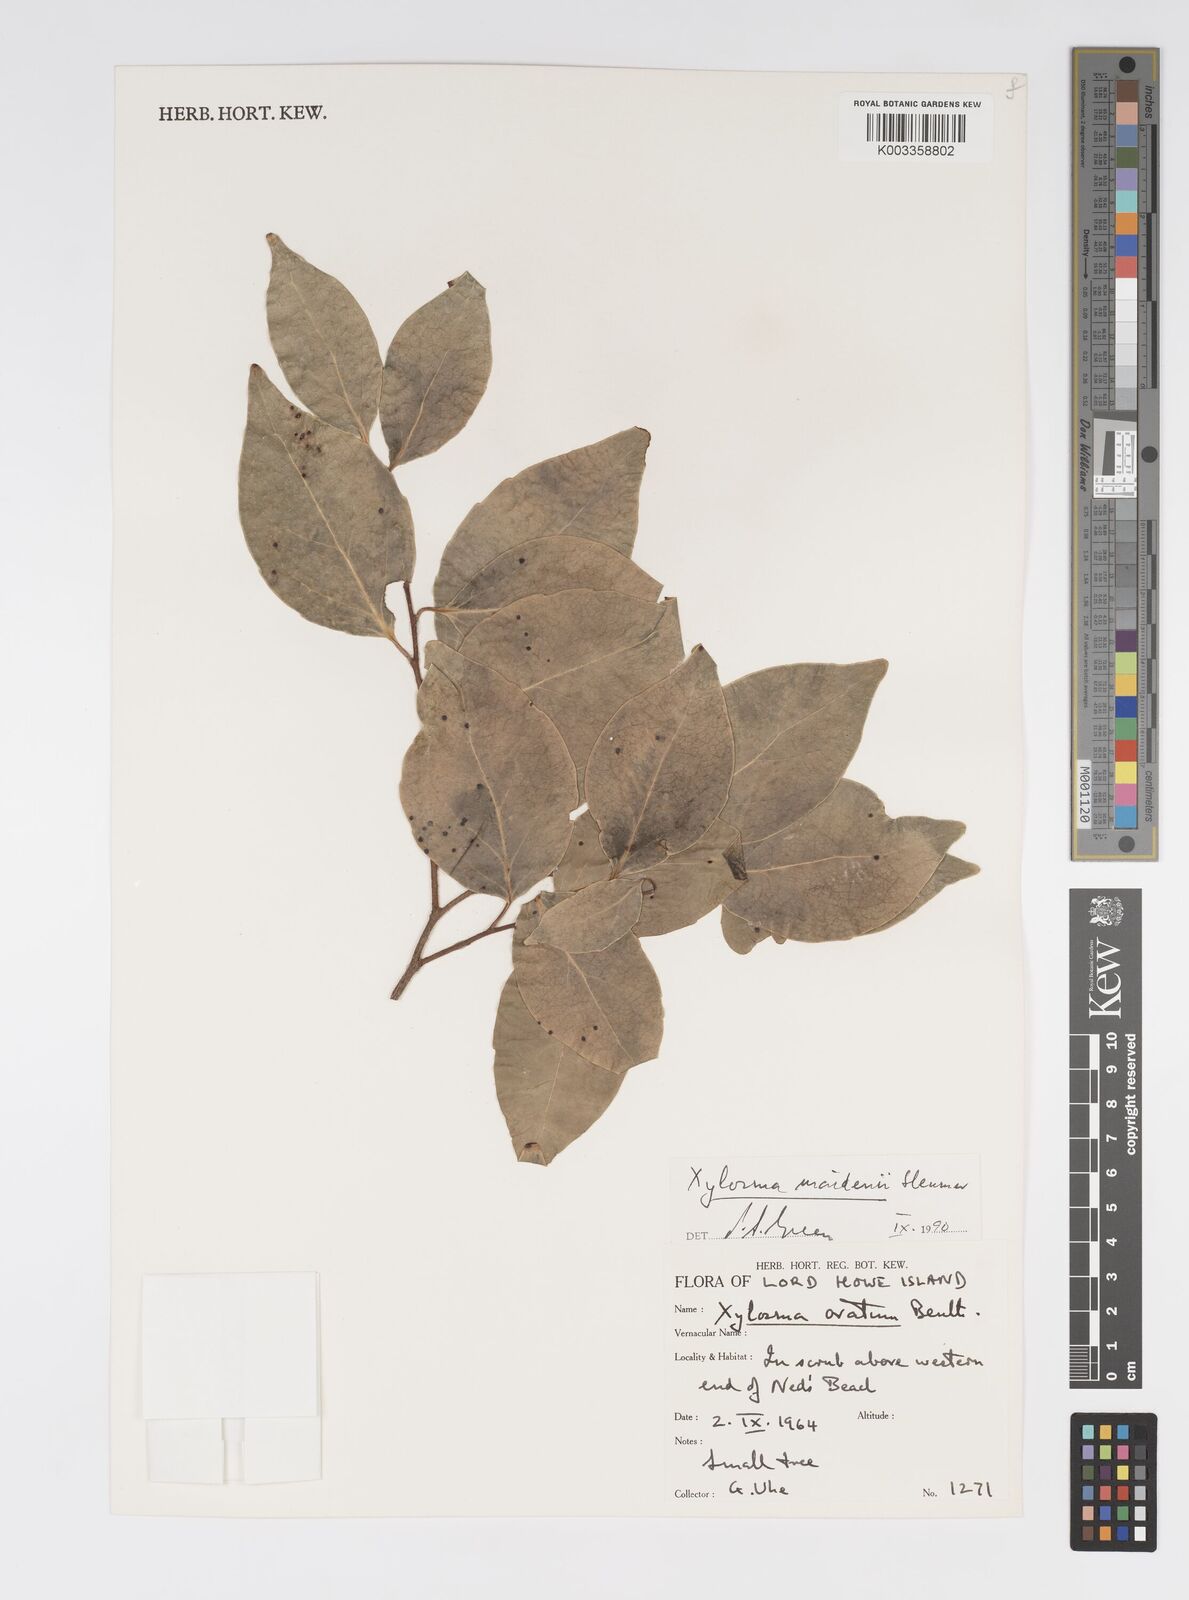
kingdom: Plantae
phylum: Tracheophyta
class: Magnoliopsida
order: Malpighiales
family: Salicaceae
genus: Xylosma
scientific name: Xylosma maidenii
